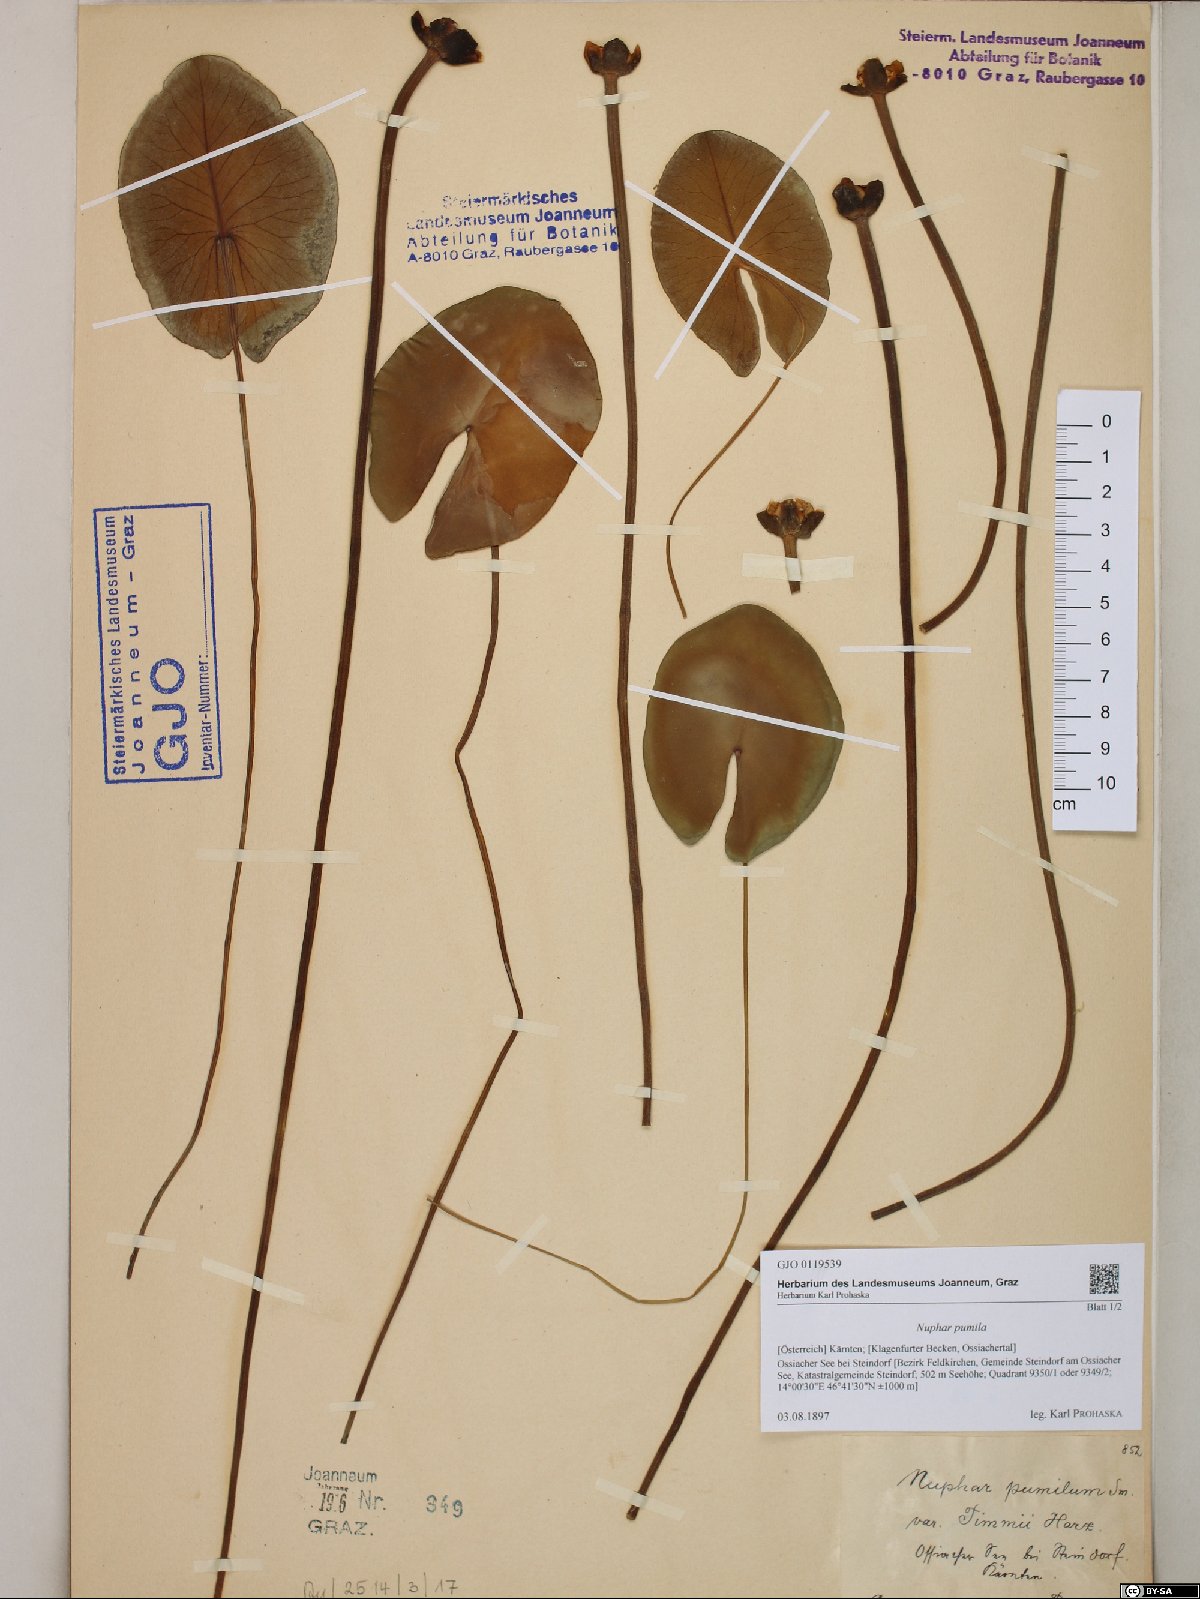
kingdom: Plantae
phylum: Tracheophyta
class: Magnoliopsida
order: Nymphaeales
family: Nymphaeaceae
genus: Nuphar
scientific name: Nuphar pumila
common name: Least water-lily
